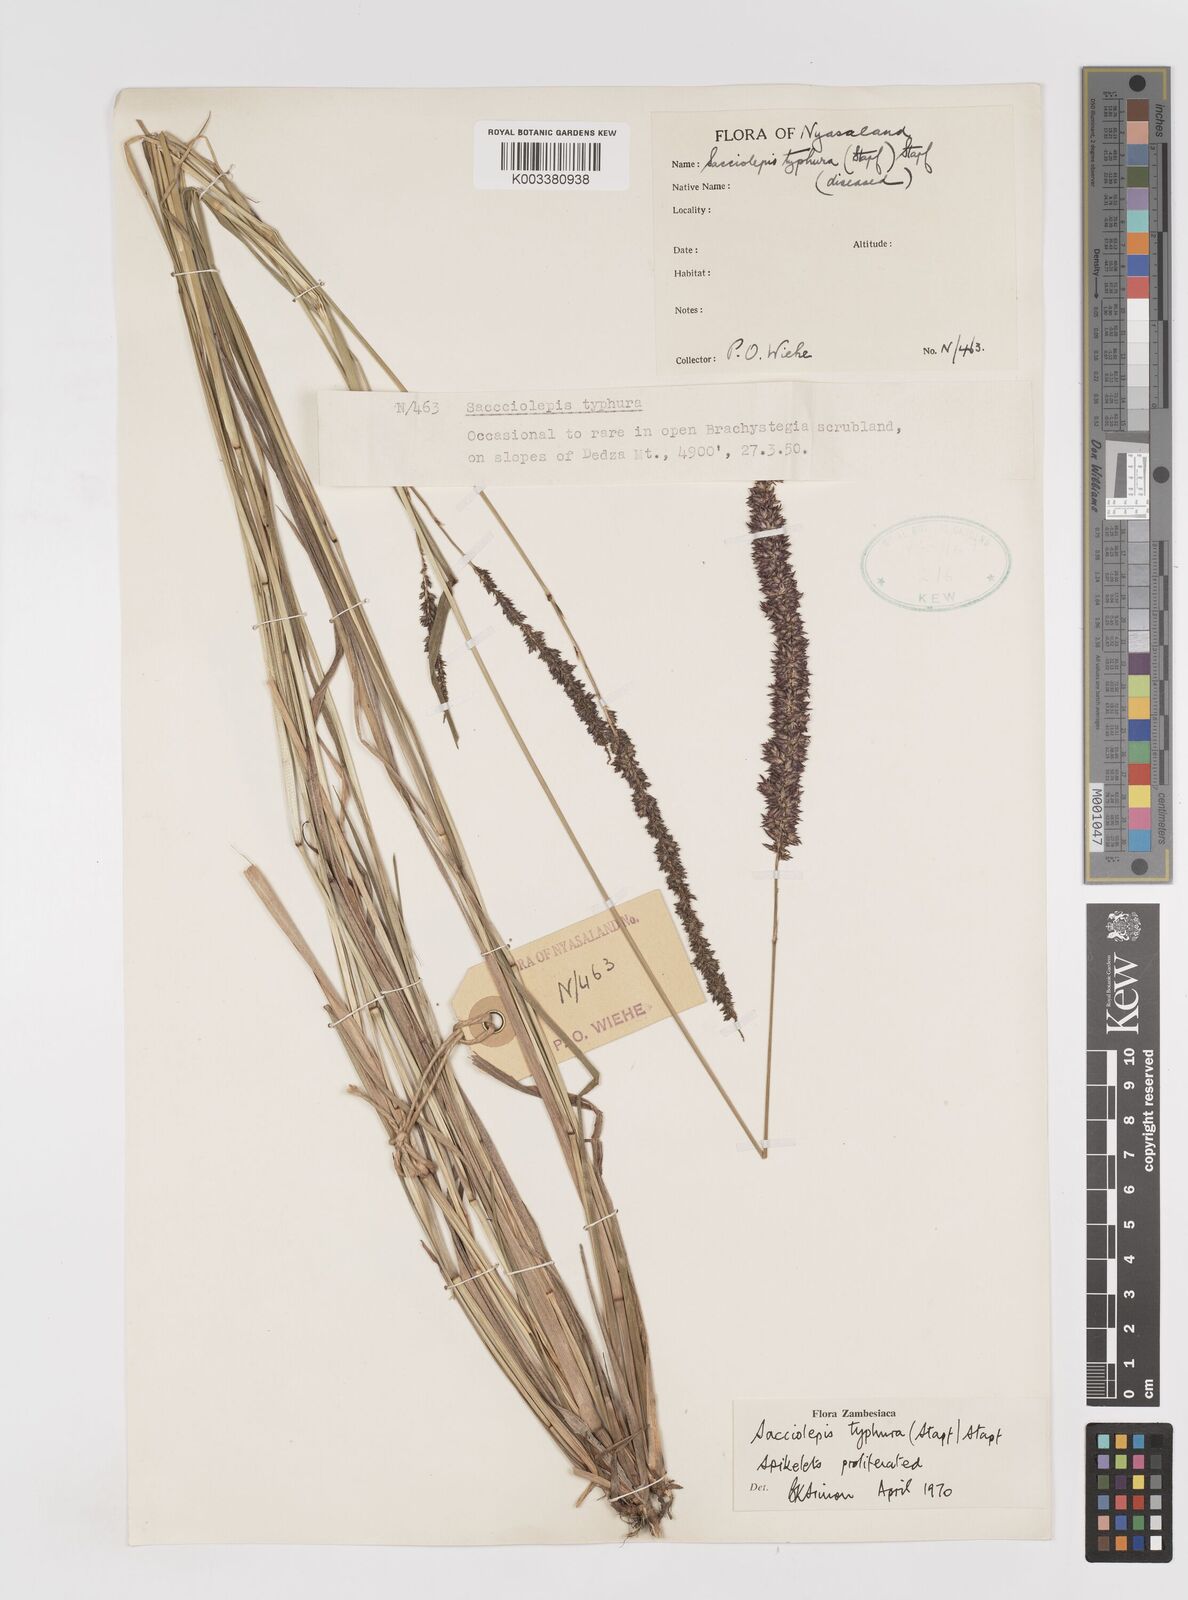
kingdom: Plantae
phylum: Tracheophyta
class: Liliopsida
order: Poales
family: Poaceae
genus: Sacciolepis
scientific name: Sacciolepis typhura
